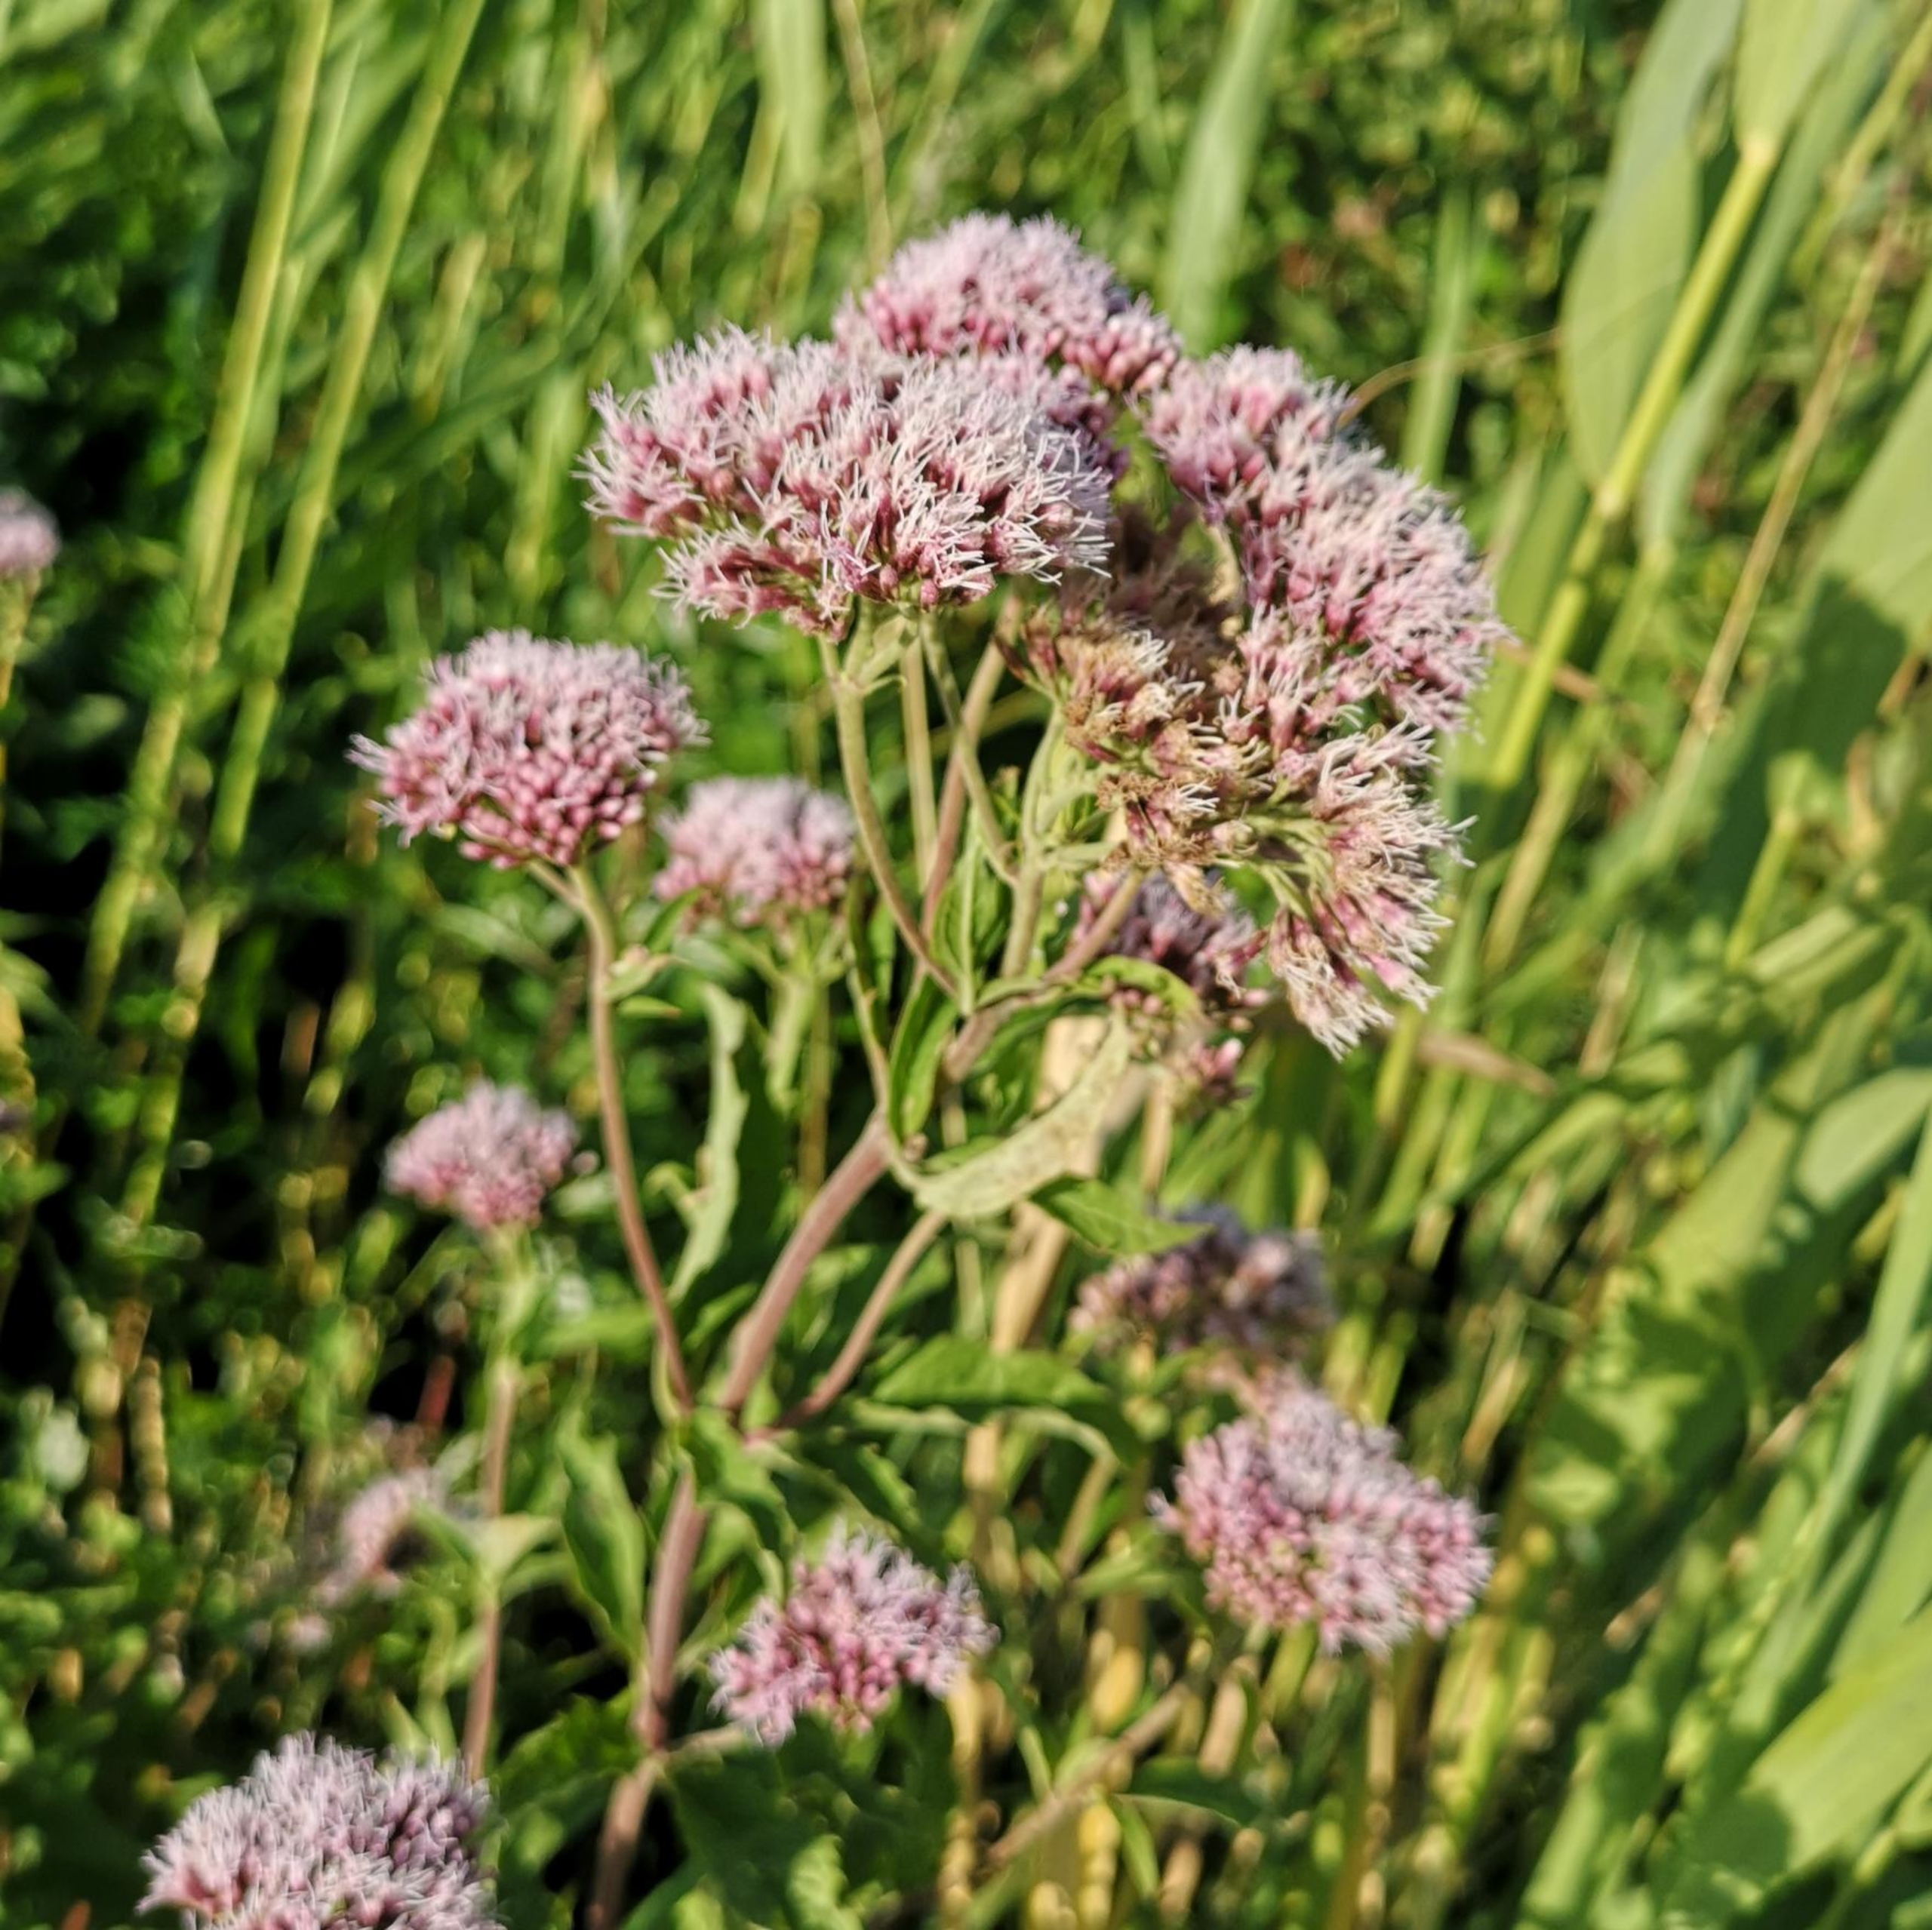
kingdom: Plantae
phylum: Tracheophyta
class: Magnoliopsida
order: Asterales
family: Asteraceae
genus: Eupatorium
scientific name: Eupatorium cannabinum
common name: Hjortetrøst
